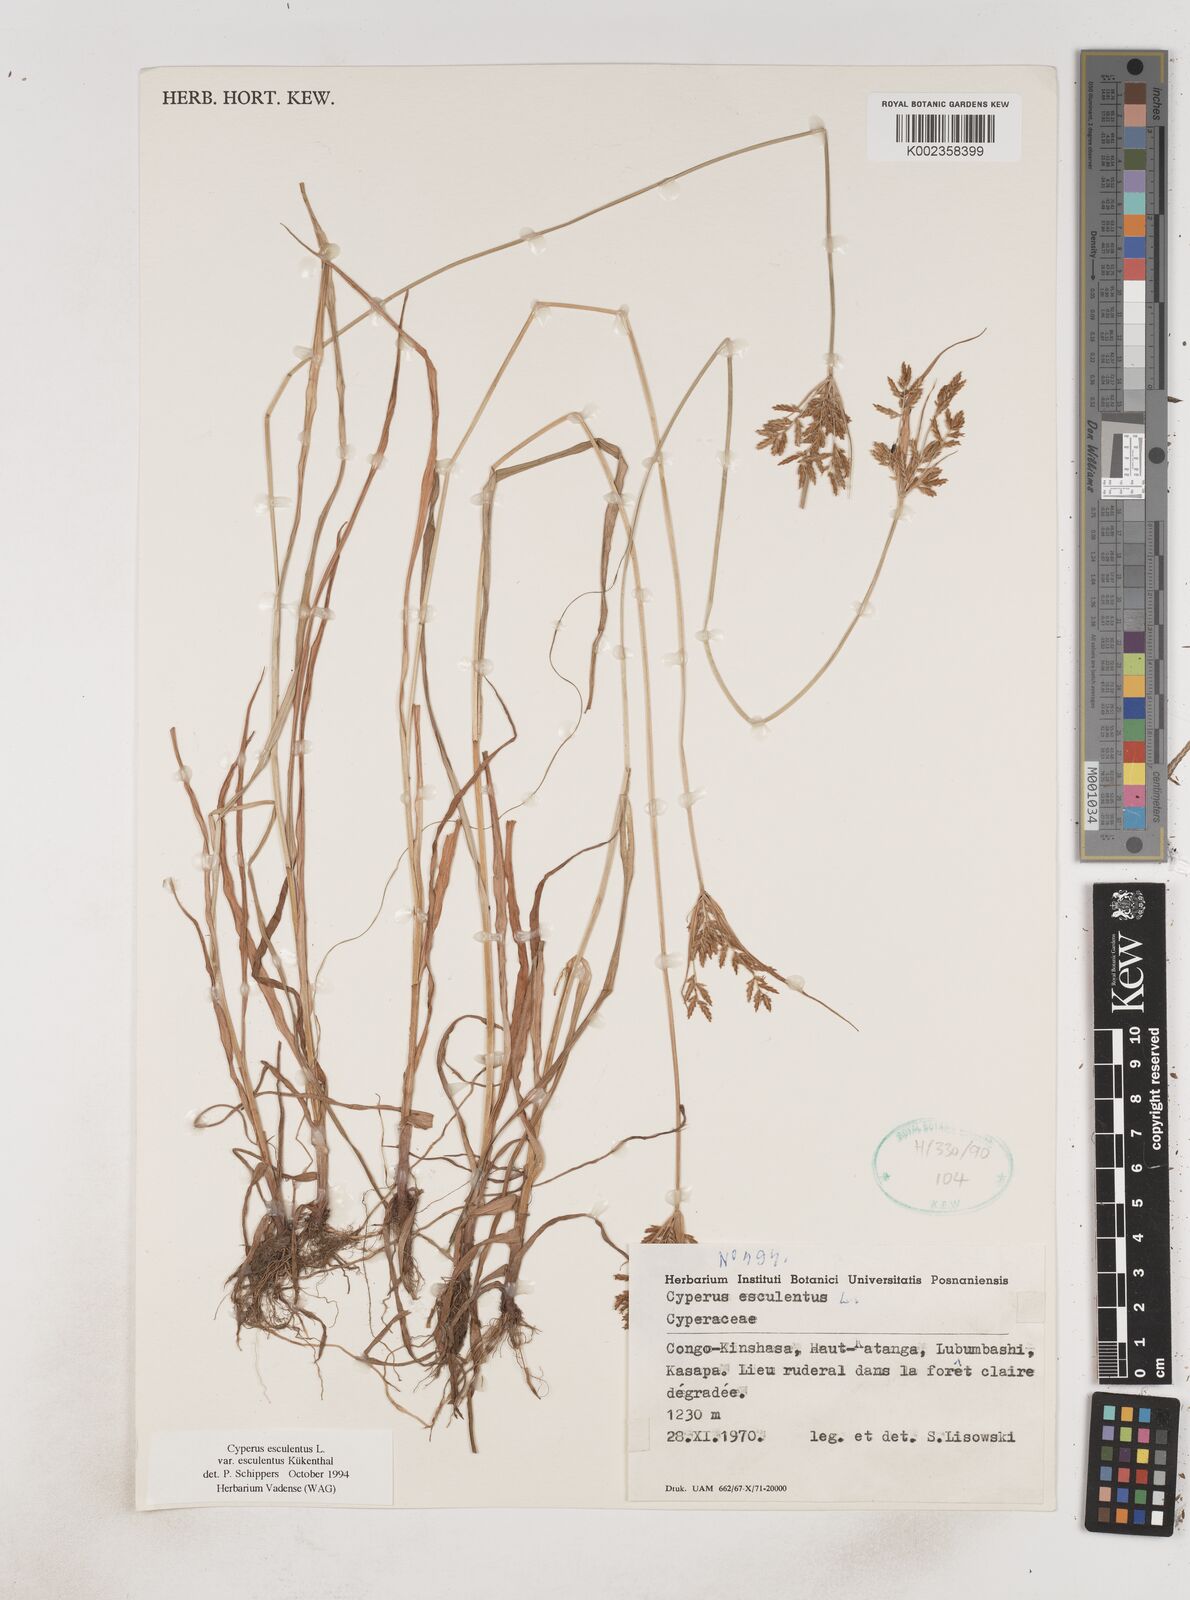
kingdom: Plantae
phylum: Tracheophyta
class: Liliopsida
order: Poales
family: Cyperaceae
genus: Cyperus
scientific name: Cyperus esculentus
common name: Yellow nutsedge
